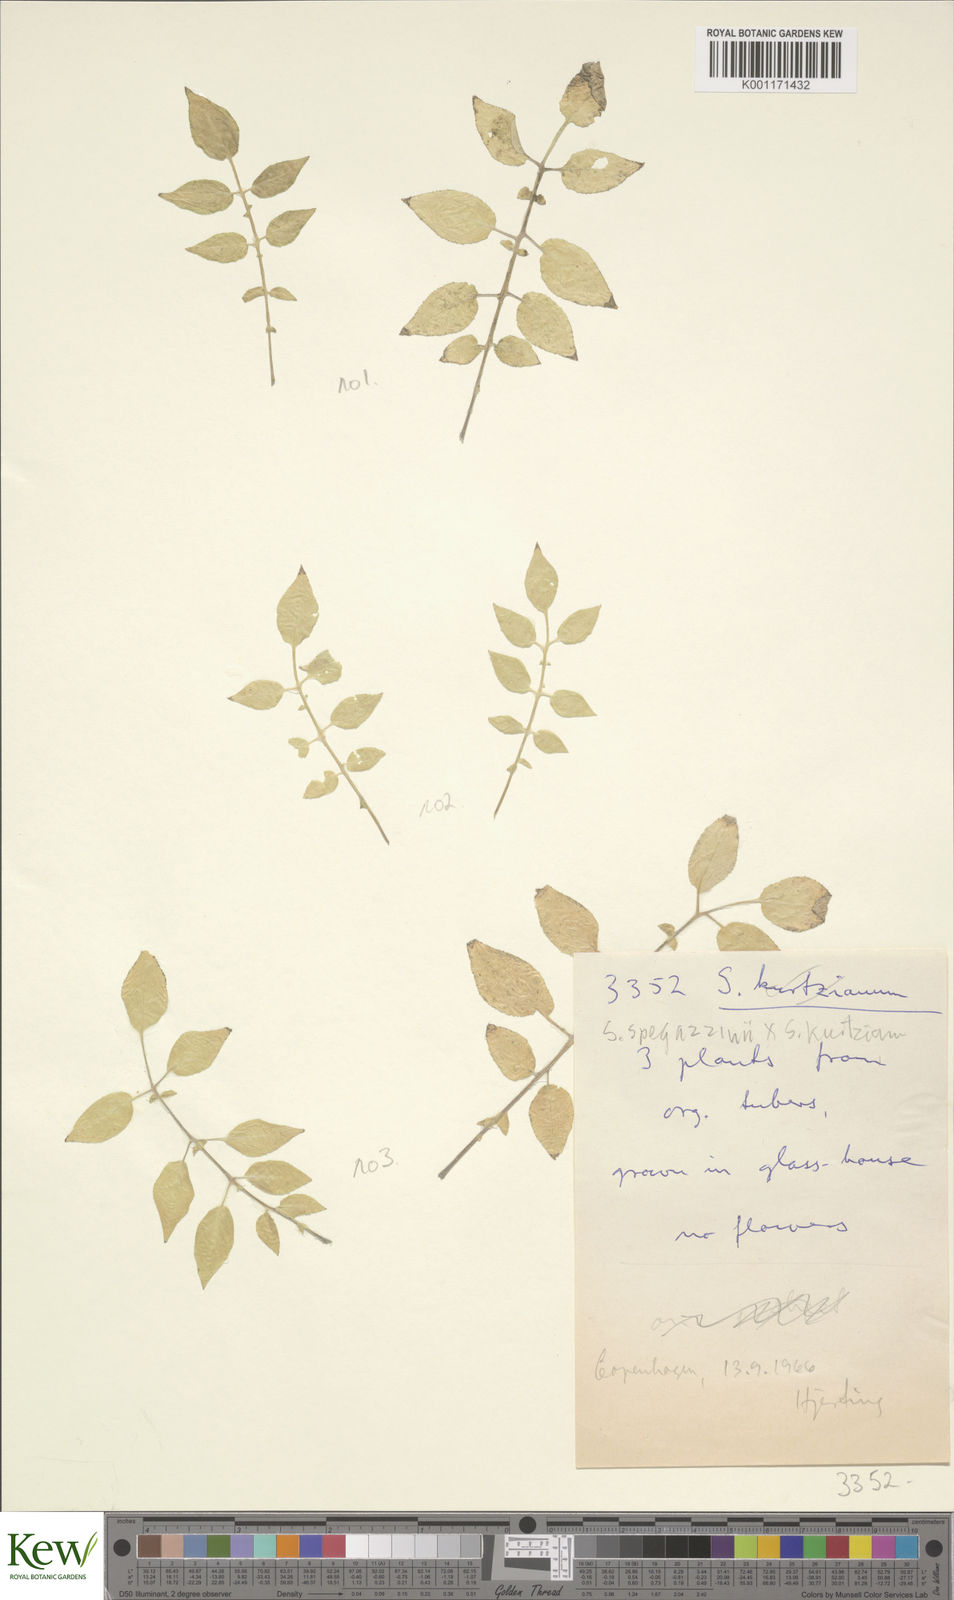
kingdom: Plantae
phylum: Tracheophyta
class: Magnoliopsida
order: Solanales
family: Solanaceae
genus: Solanum
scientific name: Solanum brevicaule
